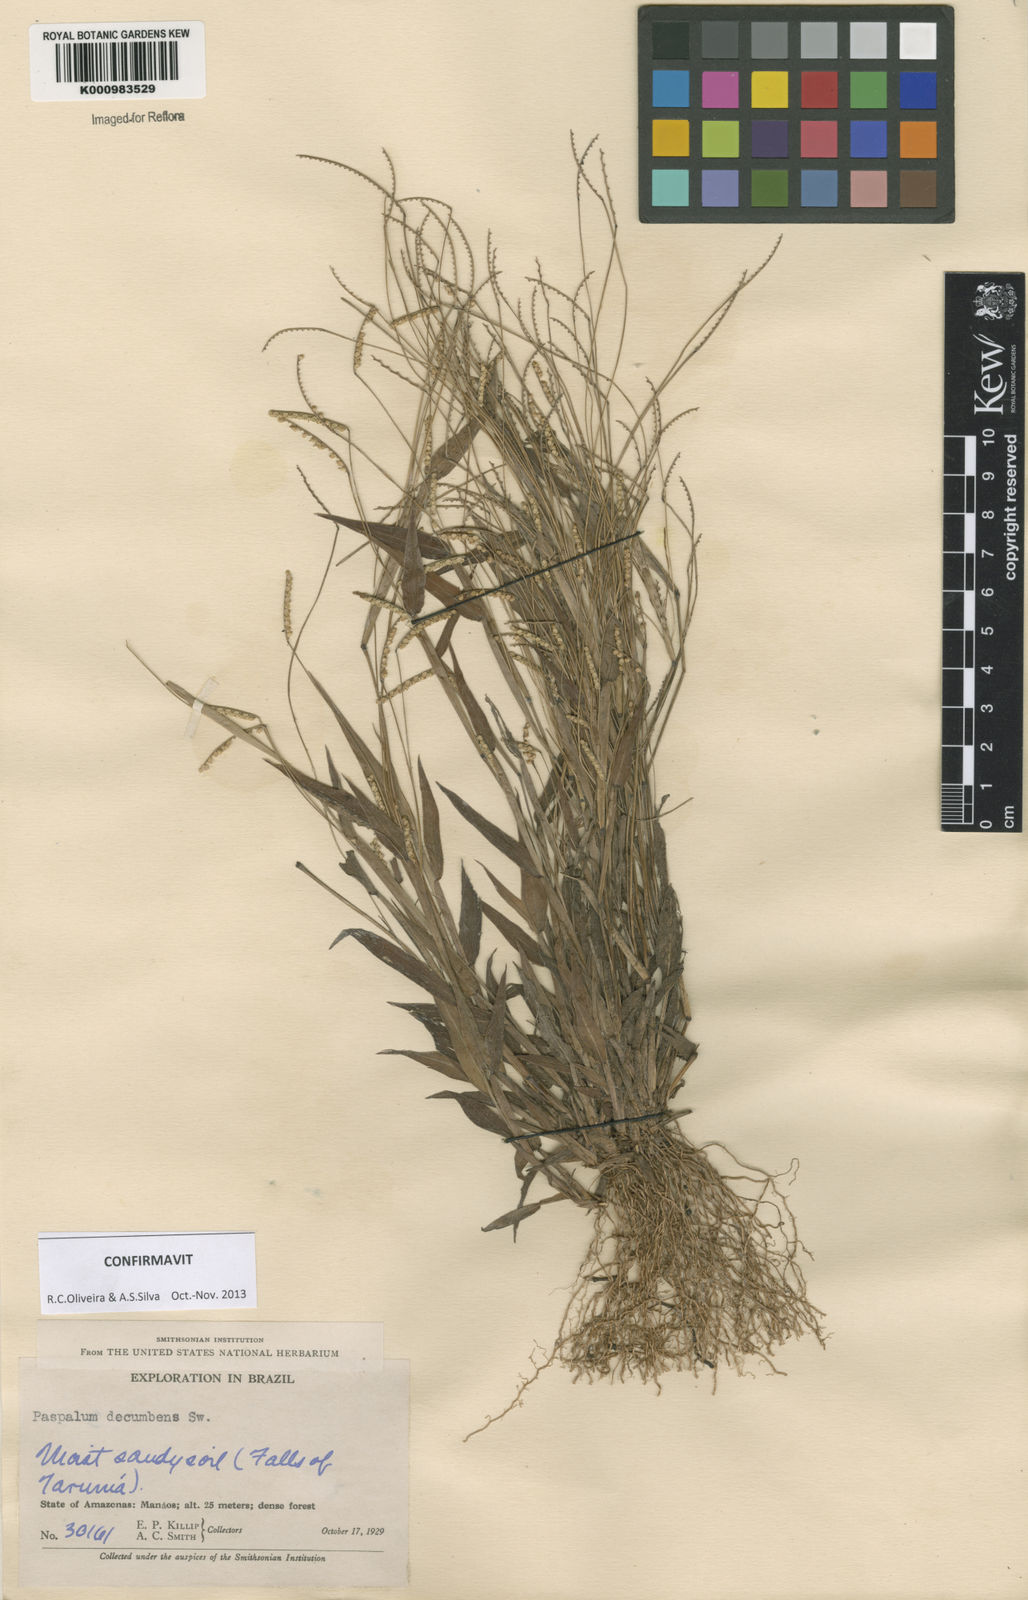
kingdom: Plantae
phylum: Tracheophyta
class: Liliopsida
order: Poales
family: Poaceae
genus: Paspalum
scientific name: Paspalum decumbens
